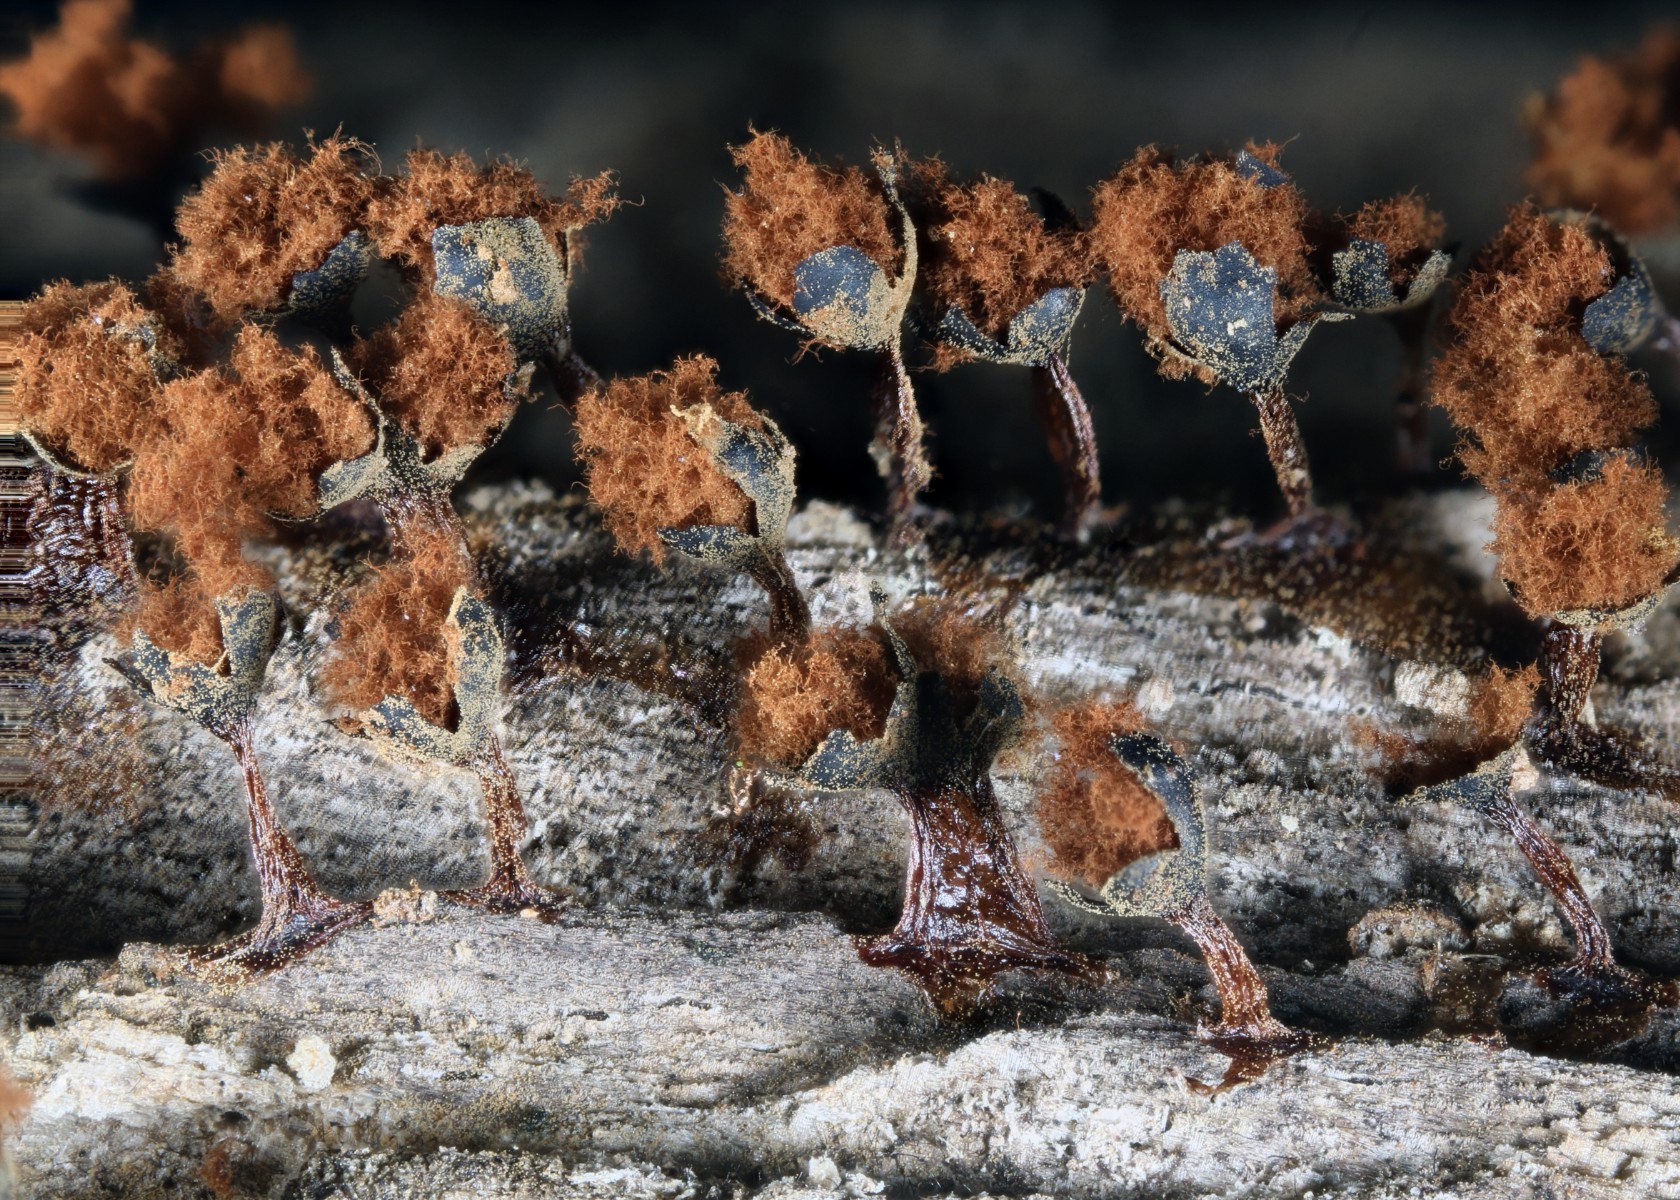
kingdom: Protozoa
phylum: Mycetozoa
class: Myxomycetes
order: Trichiales
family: Trichiaceae
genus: Metatrichia
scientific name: Metatrichia floriformis
